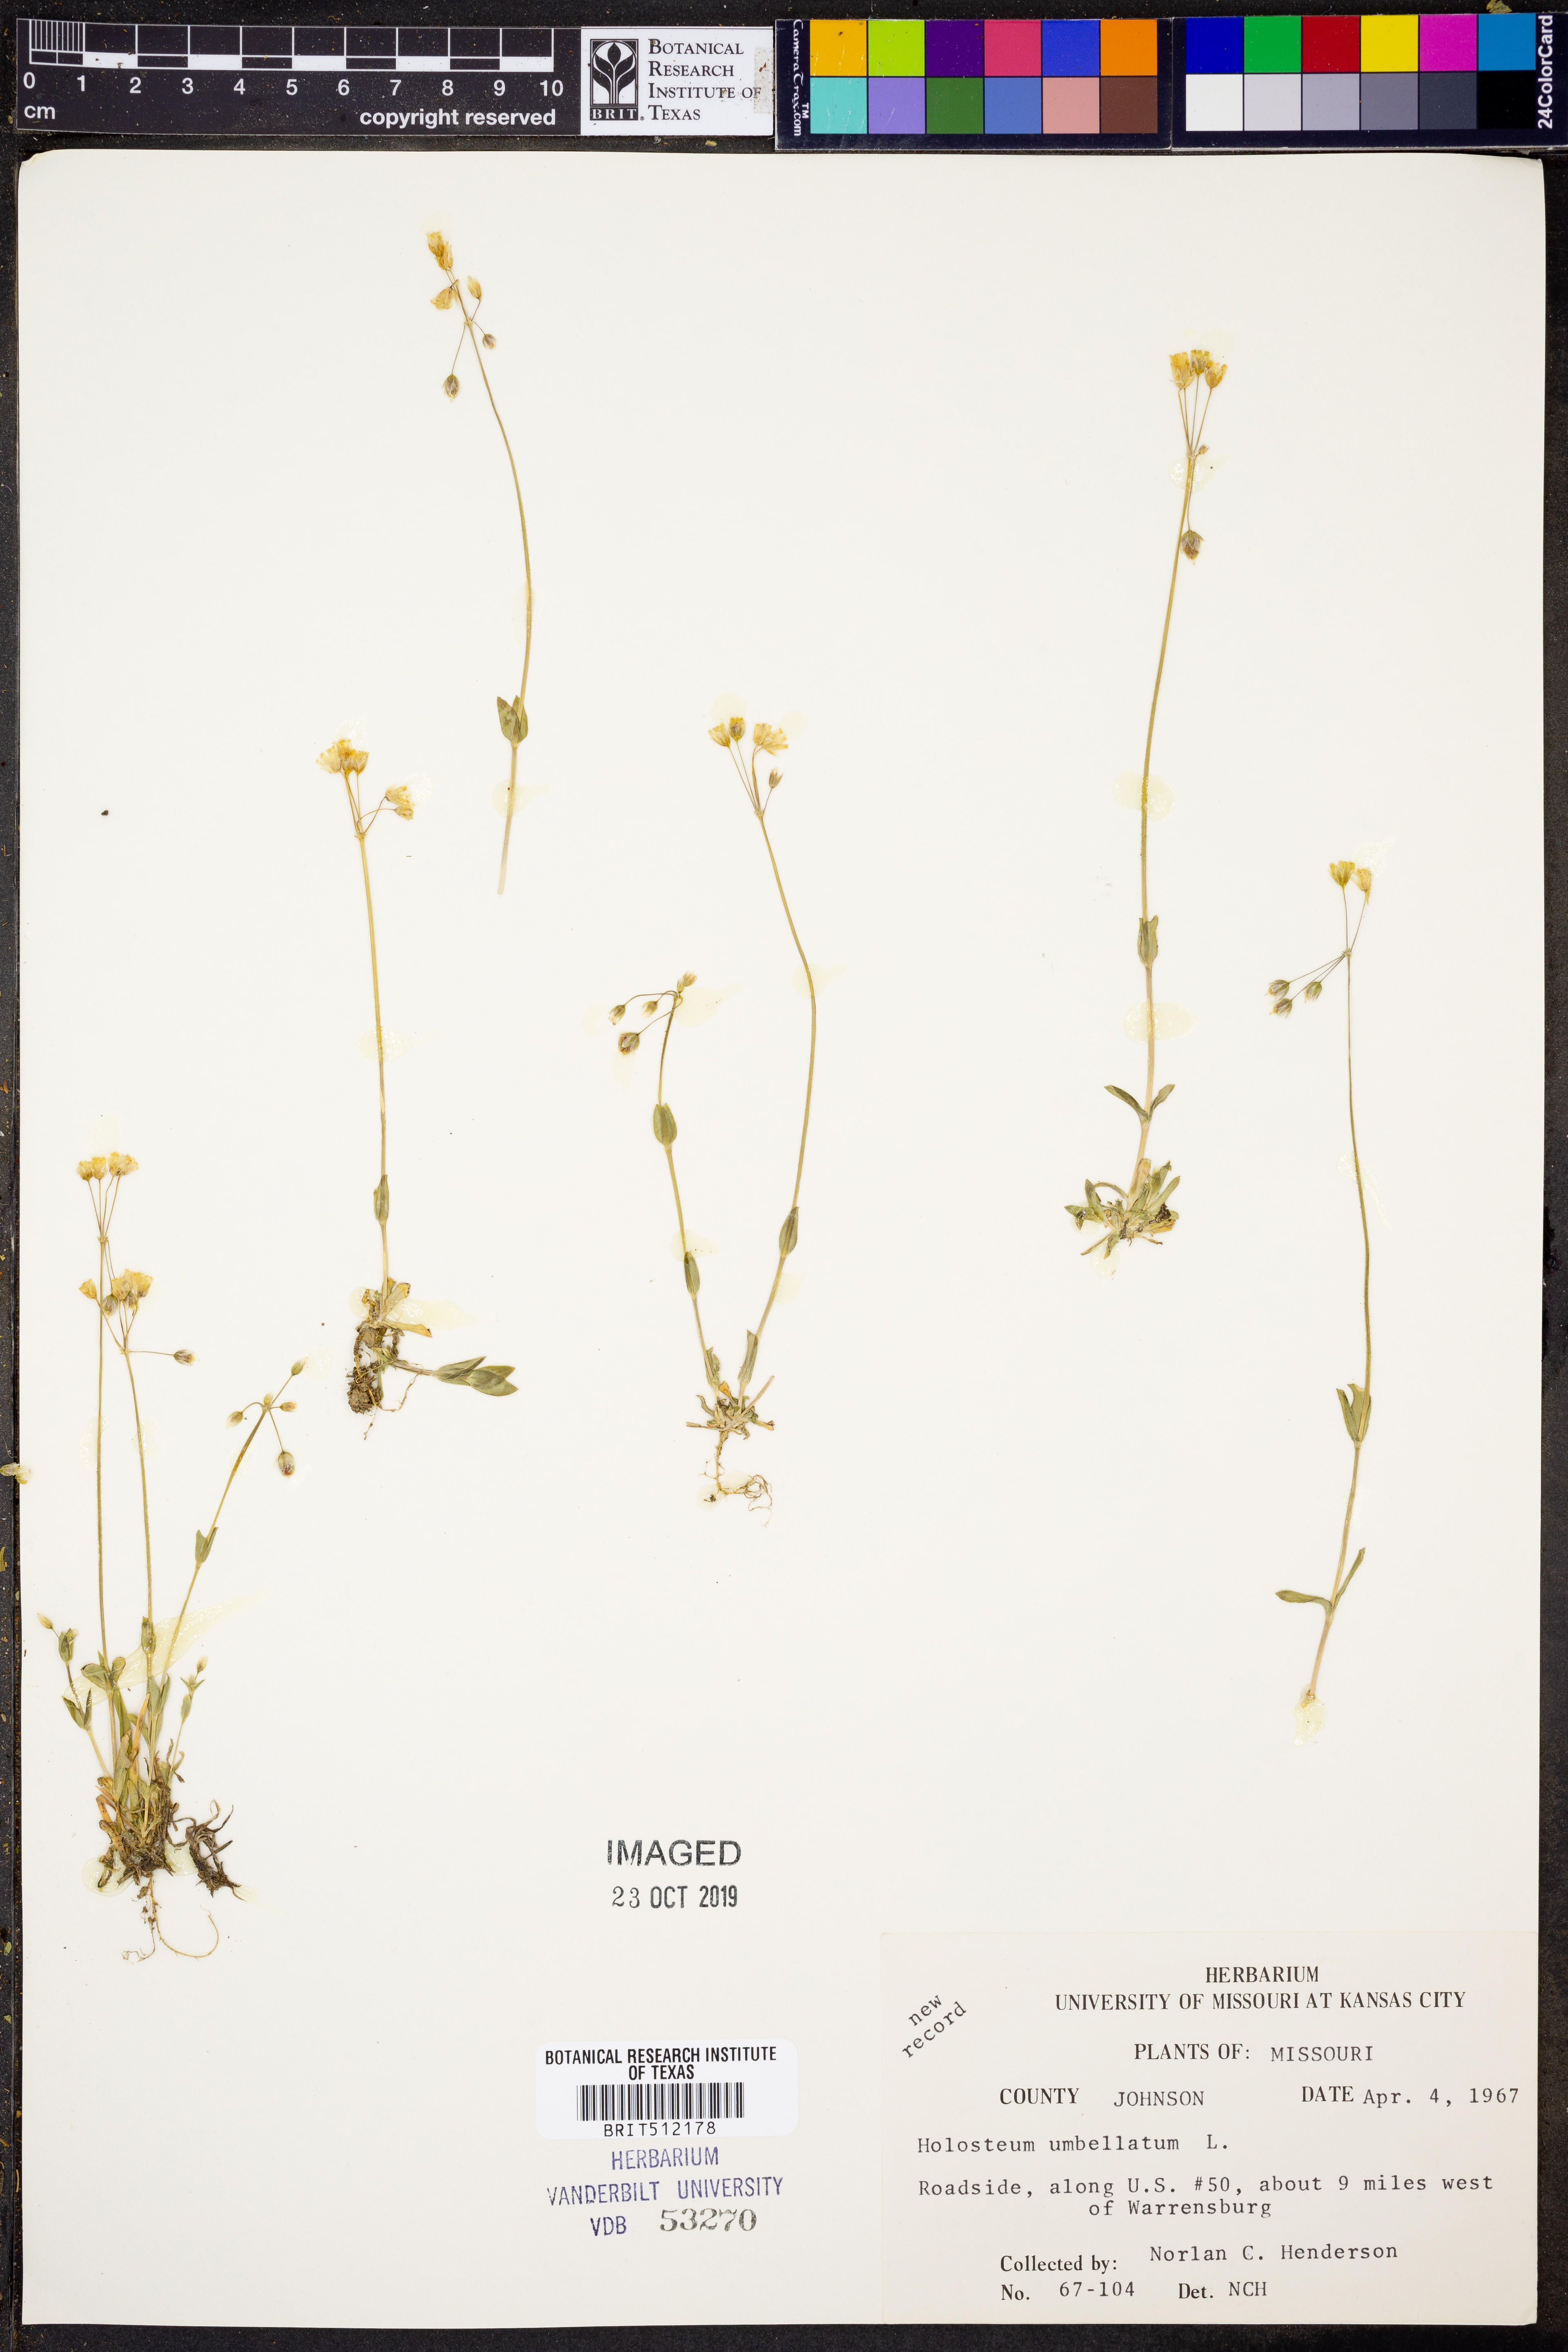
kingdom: Plantae
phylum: Tracheophyta
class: Magnoliopsida
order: Caryophyllales
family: Caryophyllaceae
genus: Holosteum
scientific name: Holosteum umbellatum
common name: Jagged chickweed
